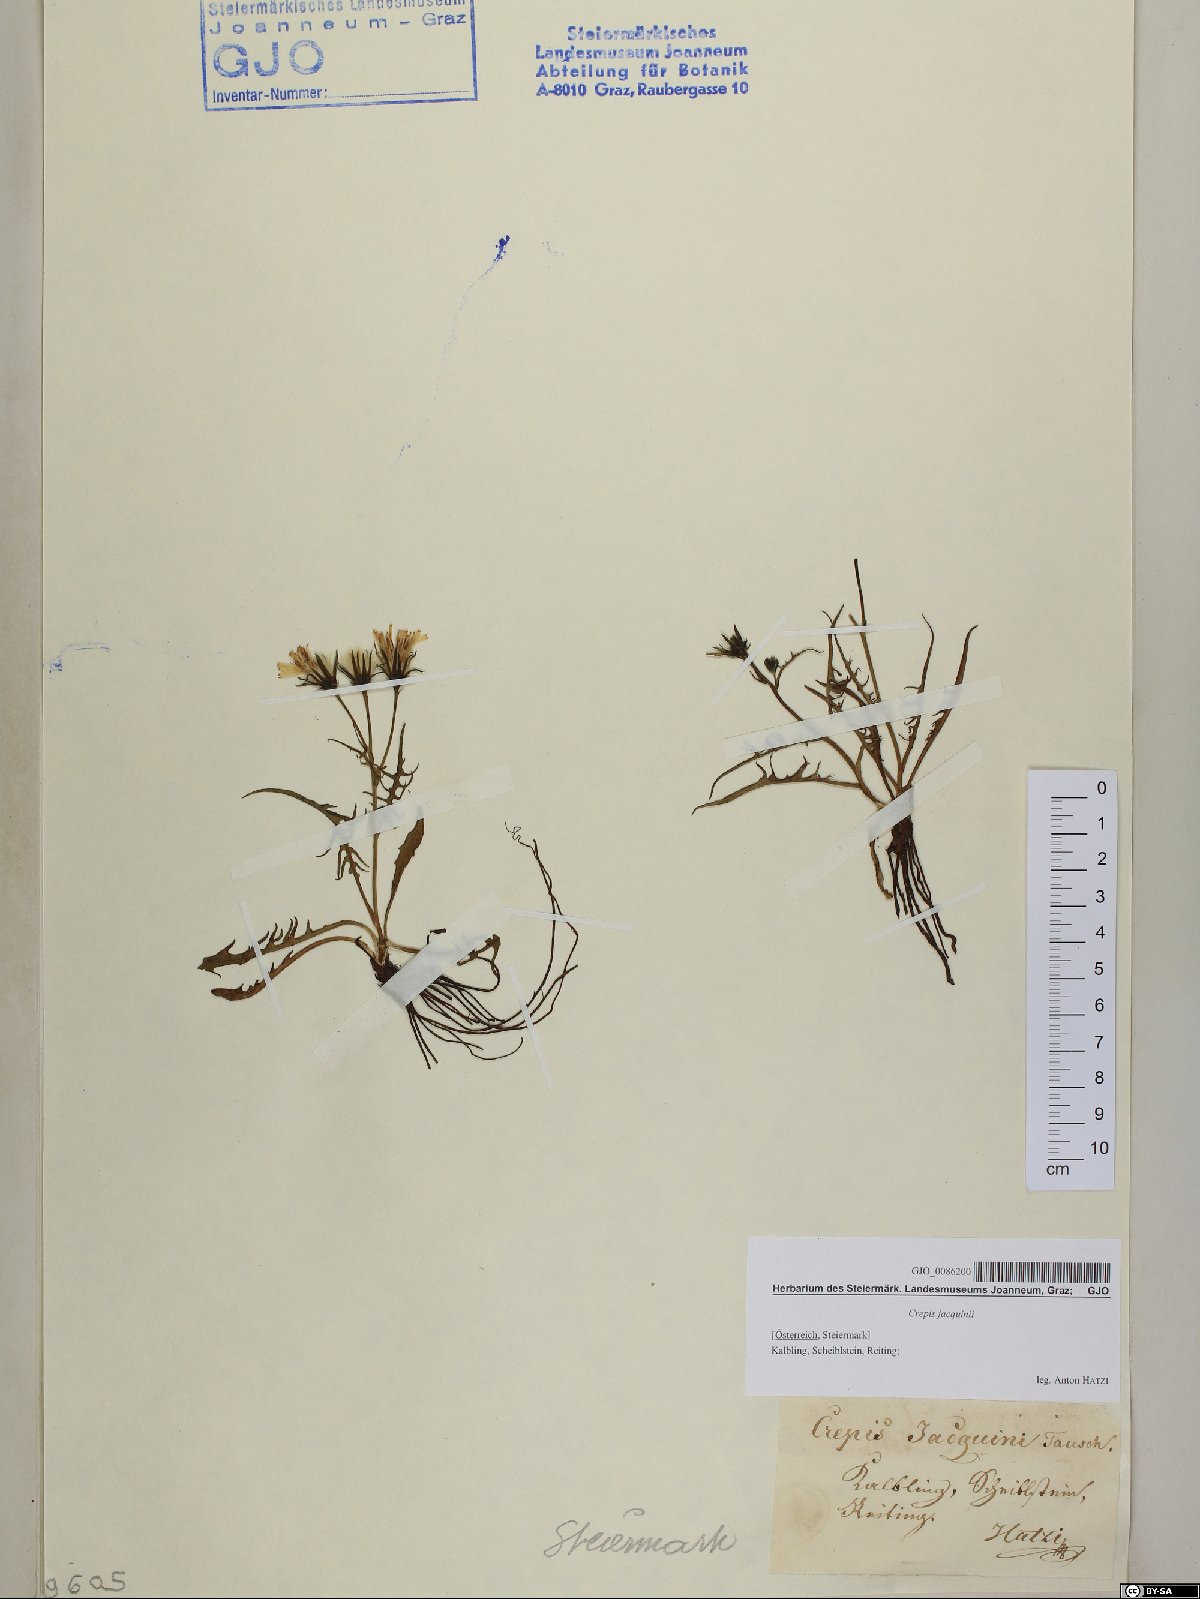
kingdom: Plantae
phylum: Tracheophyta
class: Magnoliopsida
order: Asterales
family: Asteraceae
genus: Crepis
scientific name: Crepis jacquinii
